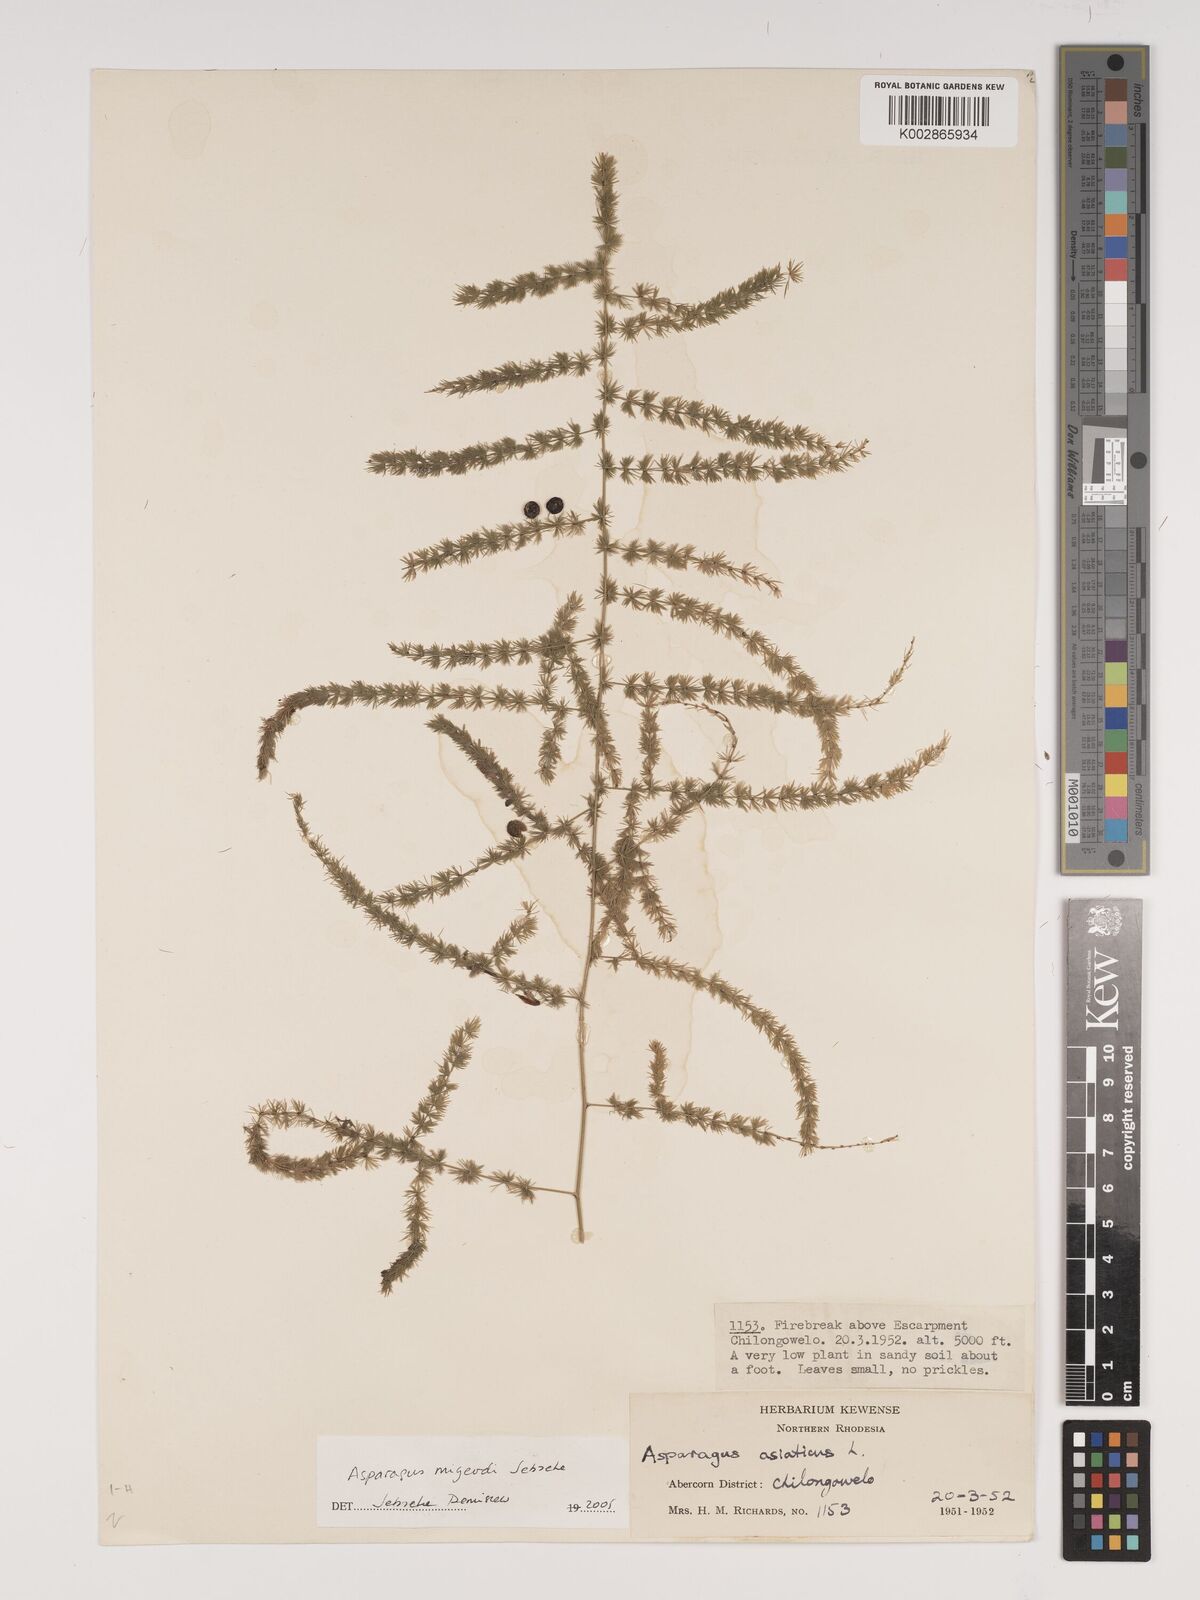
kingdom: Plantae
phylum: Tracheophyta
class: Liliopsida
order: Asparagales
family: Asparagaceae
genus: Asparagus
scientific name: Asparagus migeodii
